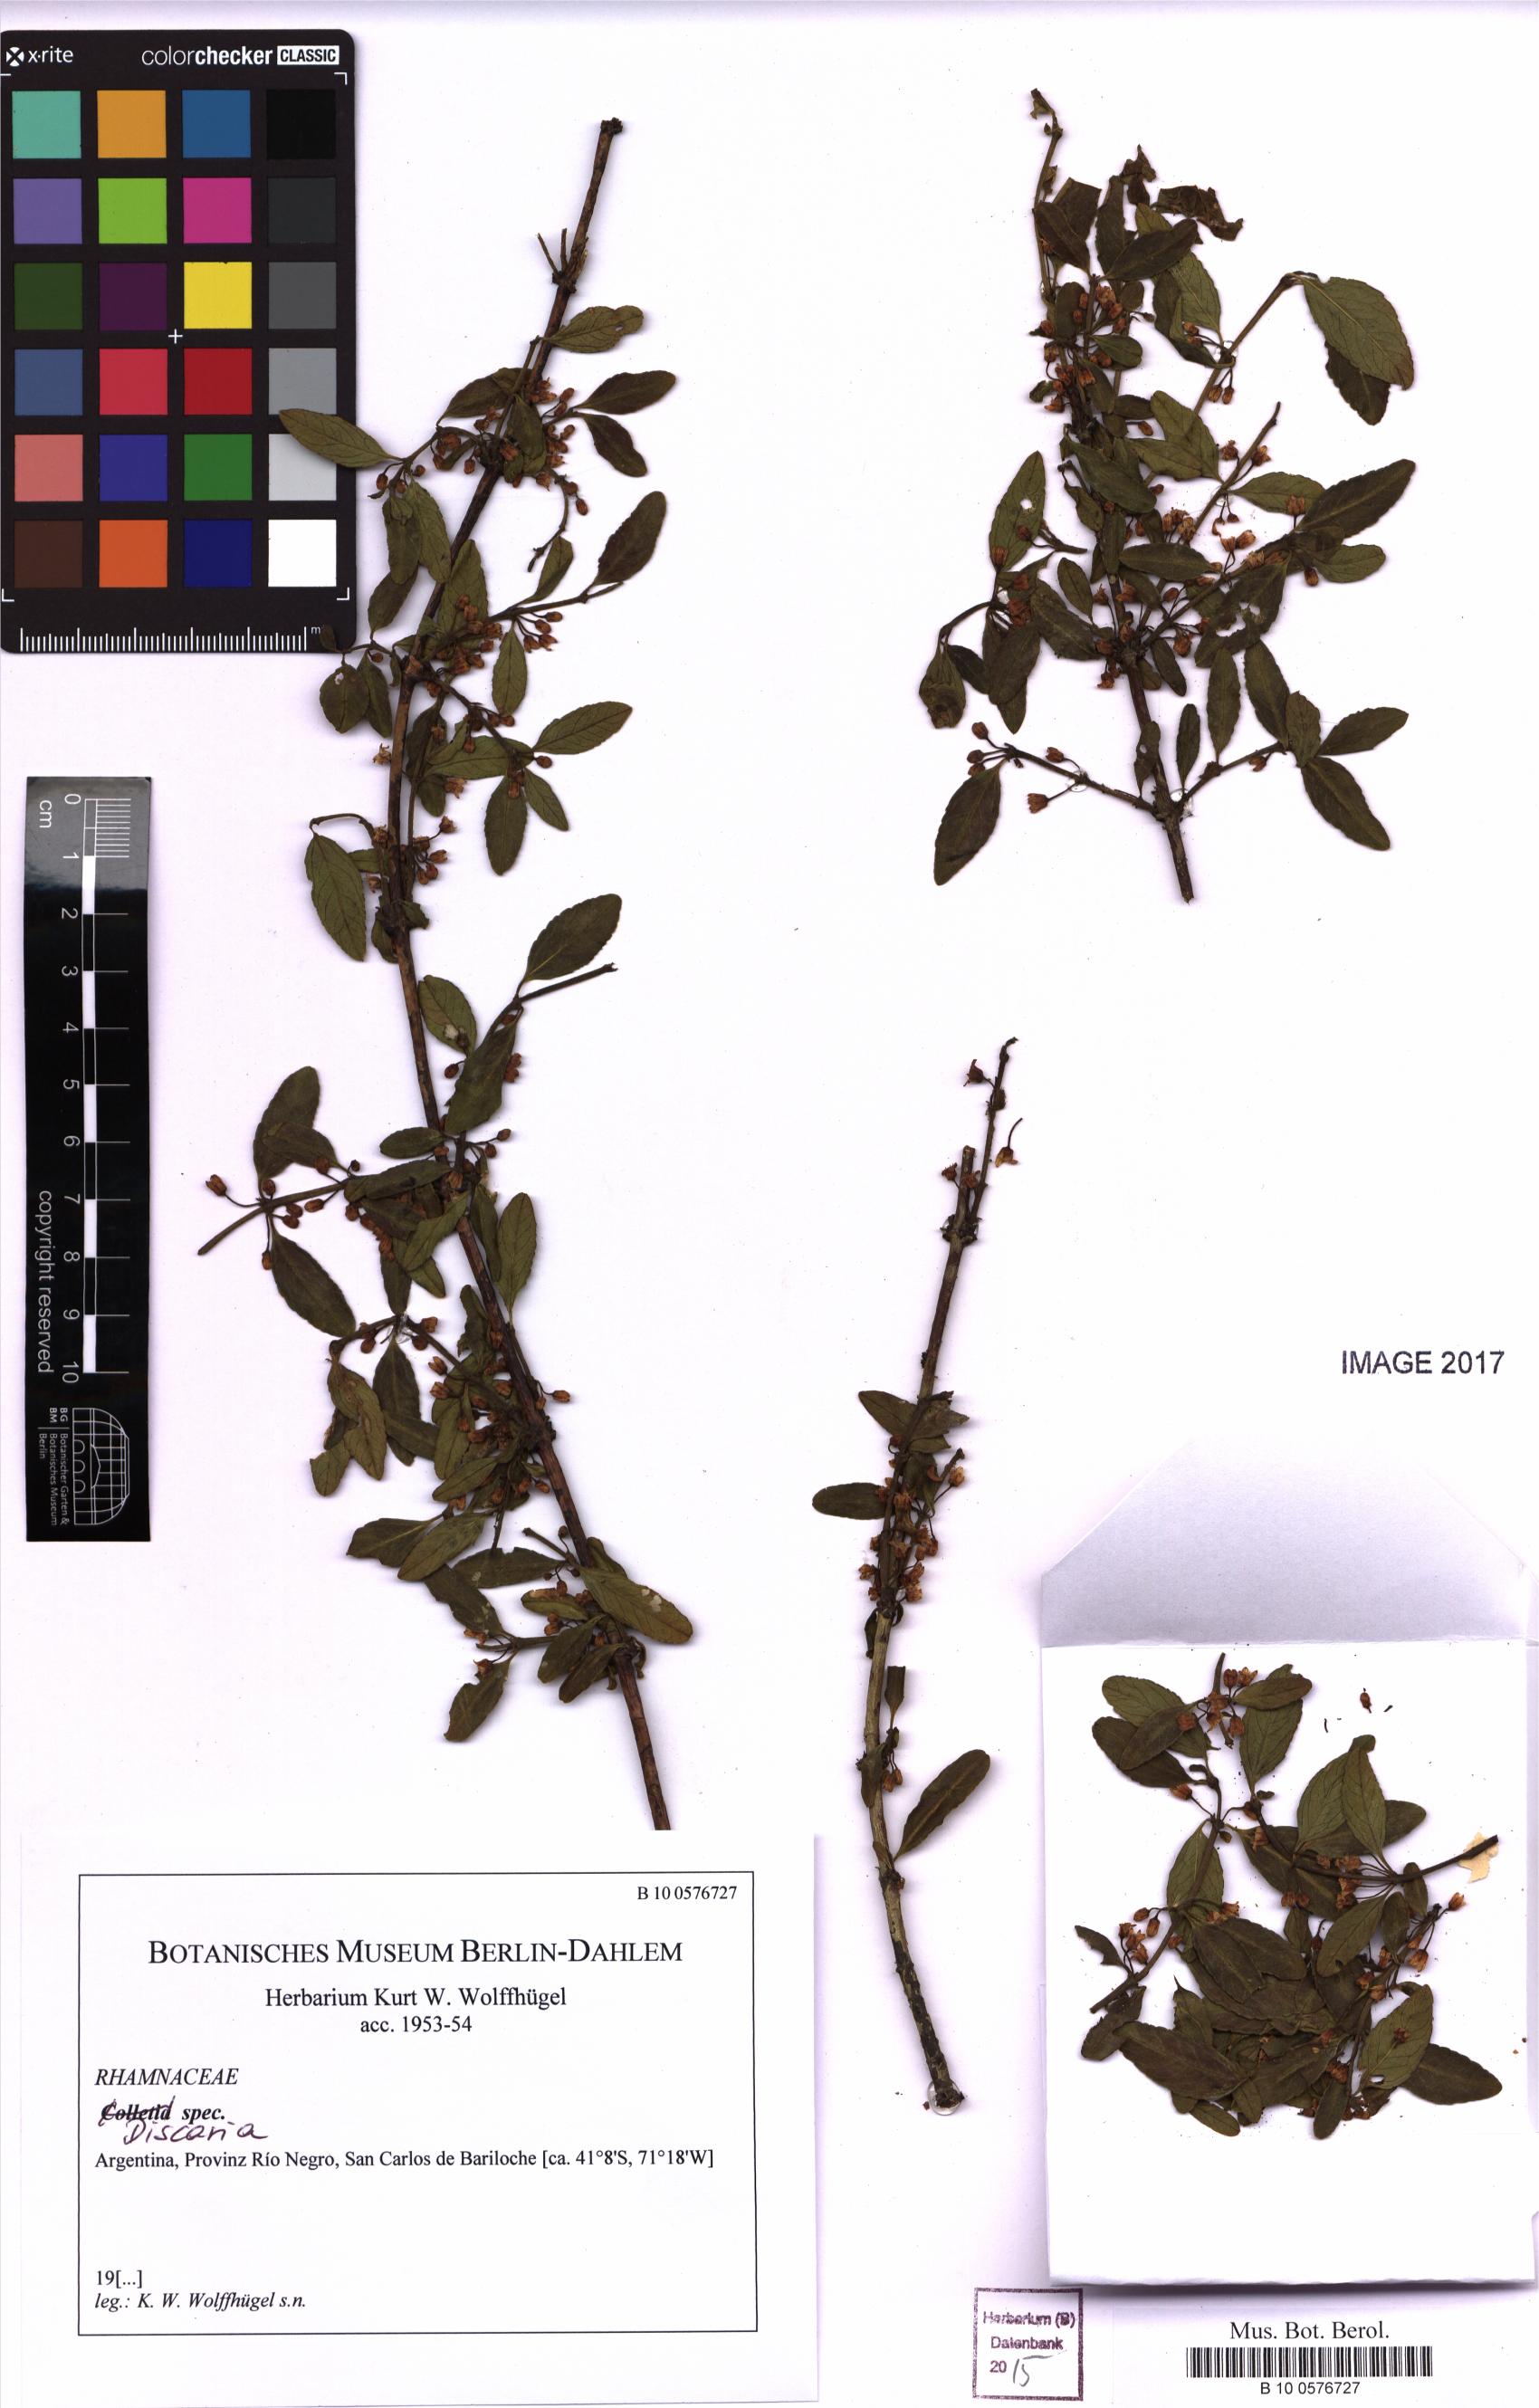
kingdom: Plantae
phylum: Tracheophyta
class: Magnoliopsida
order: Rosales
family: Rhamnaceae
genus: Discaria
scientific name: Discaria
